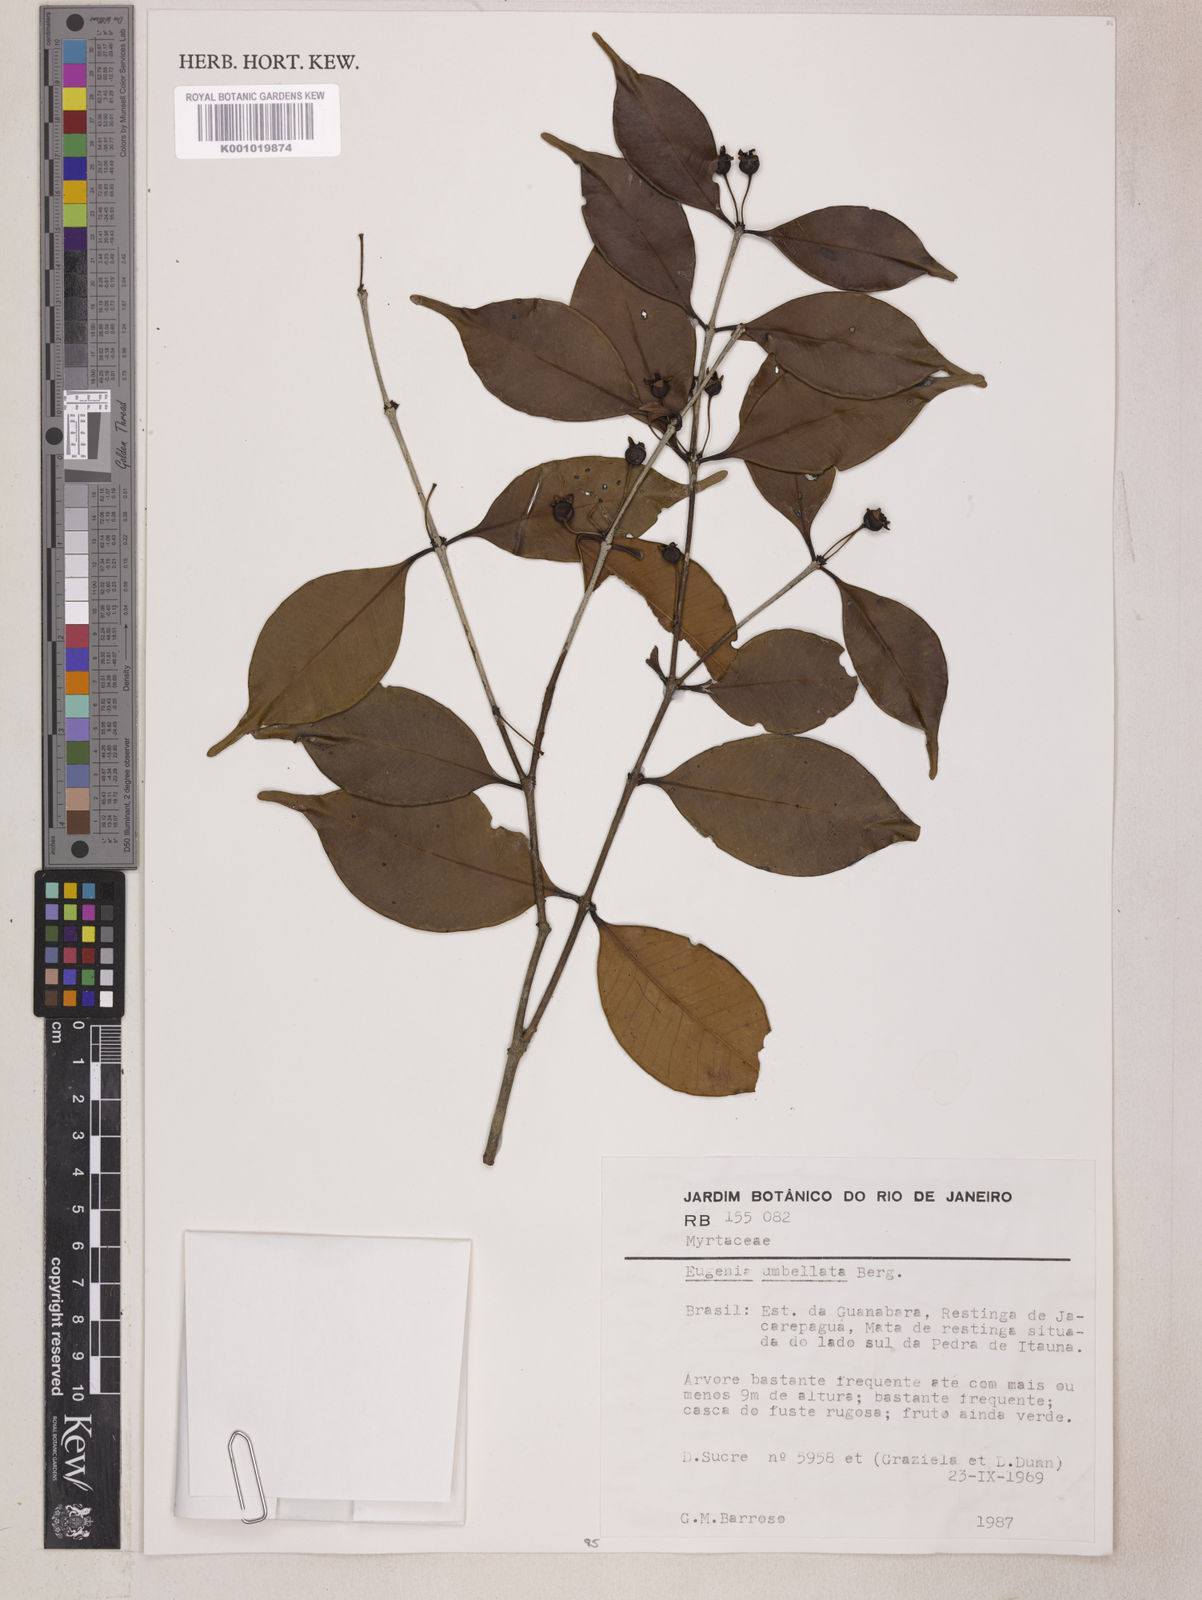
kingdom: Plantae
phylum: Tracheophyta
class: Magnoliopsida
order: Myrtales
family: Myrtaceae
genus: Eugenia
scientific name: Eugenia excelsa
